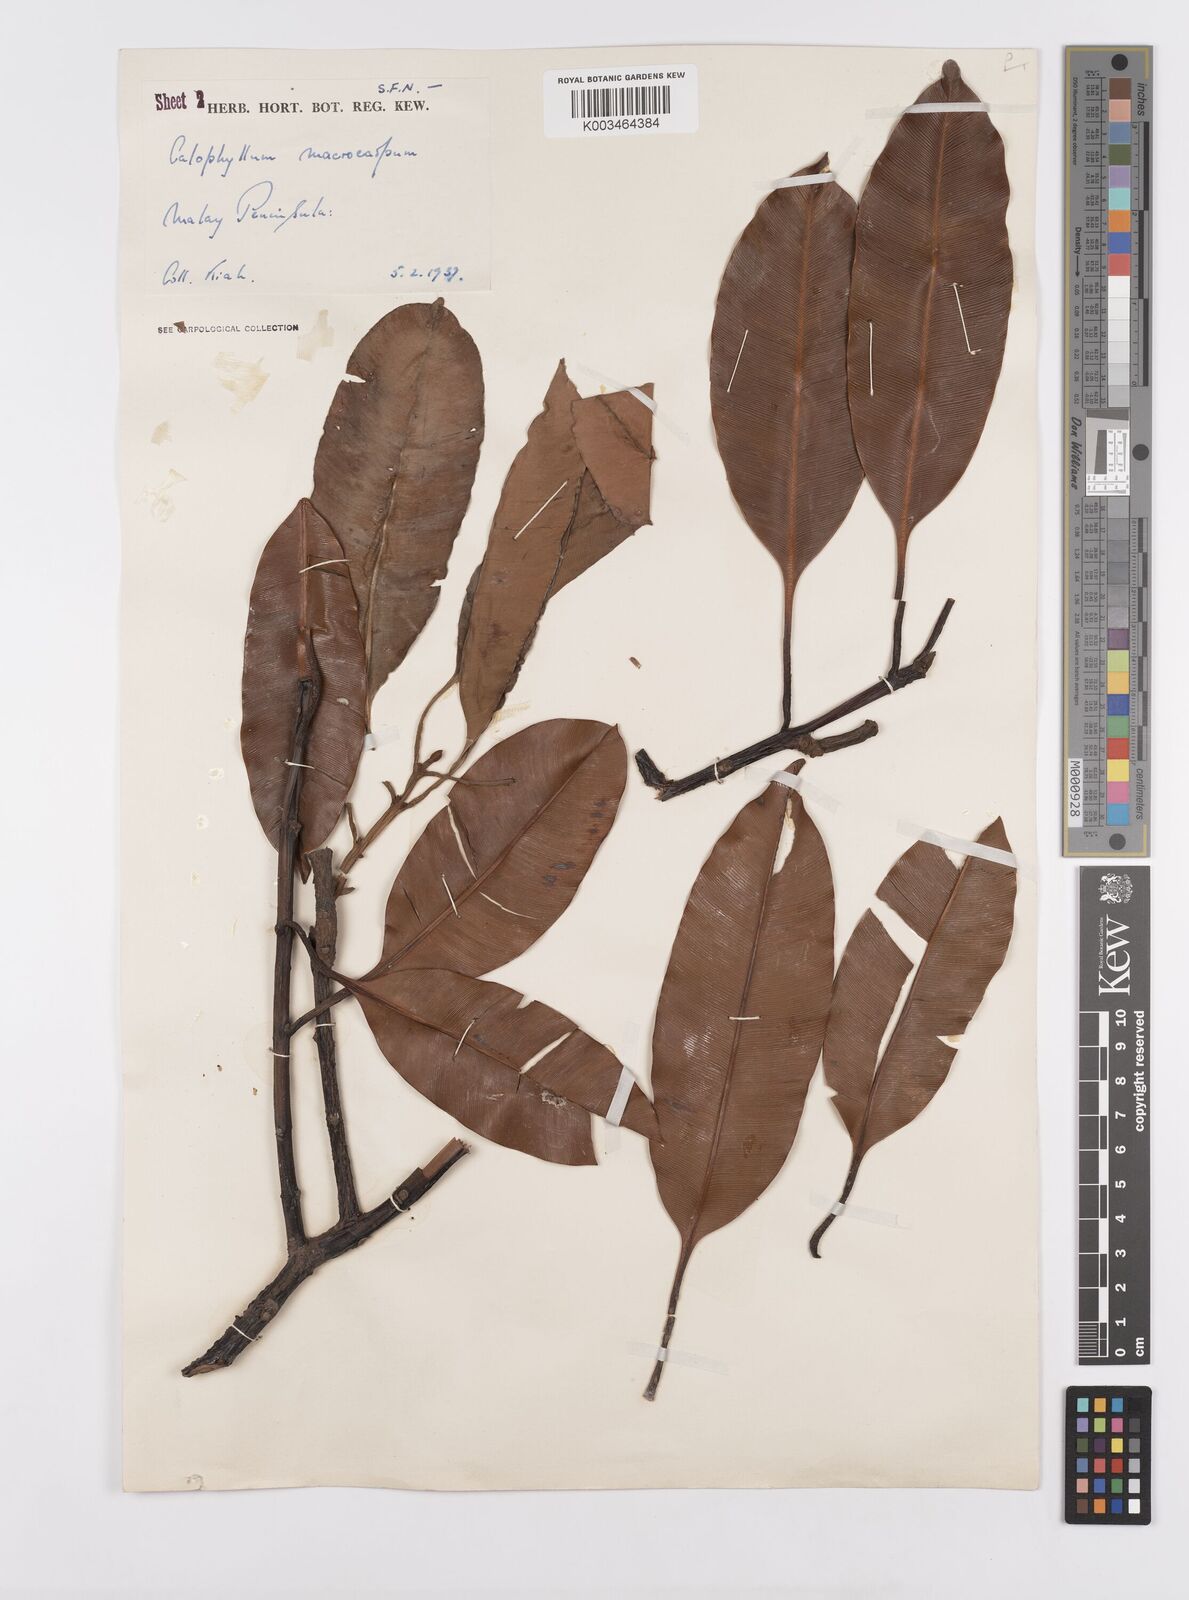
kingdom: Plantae
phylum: Tracheophyta
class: Magnoliopsida
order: Malpighiales
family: Calophyllaceae
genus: Calophyllum
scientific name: Calophyllum macrocarpum
